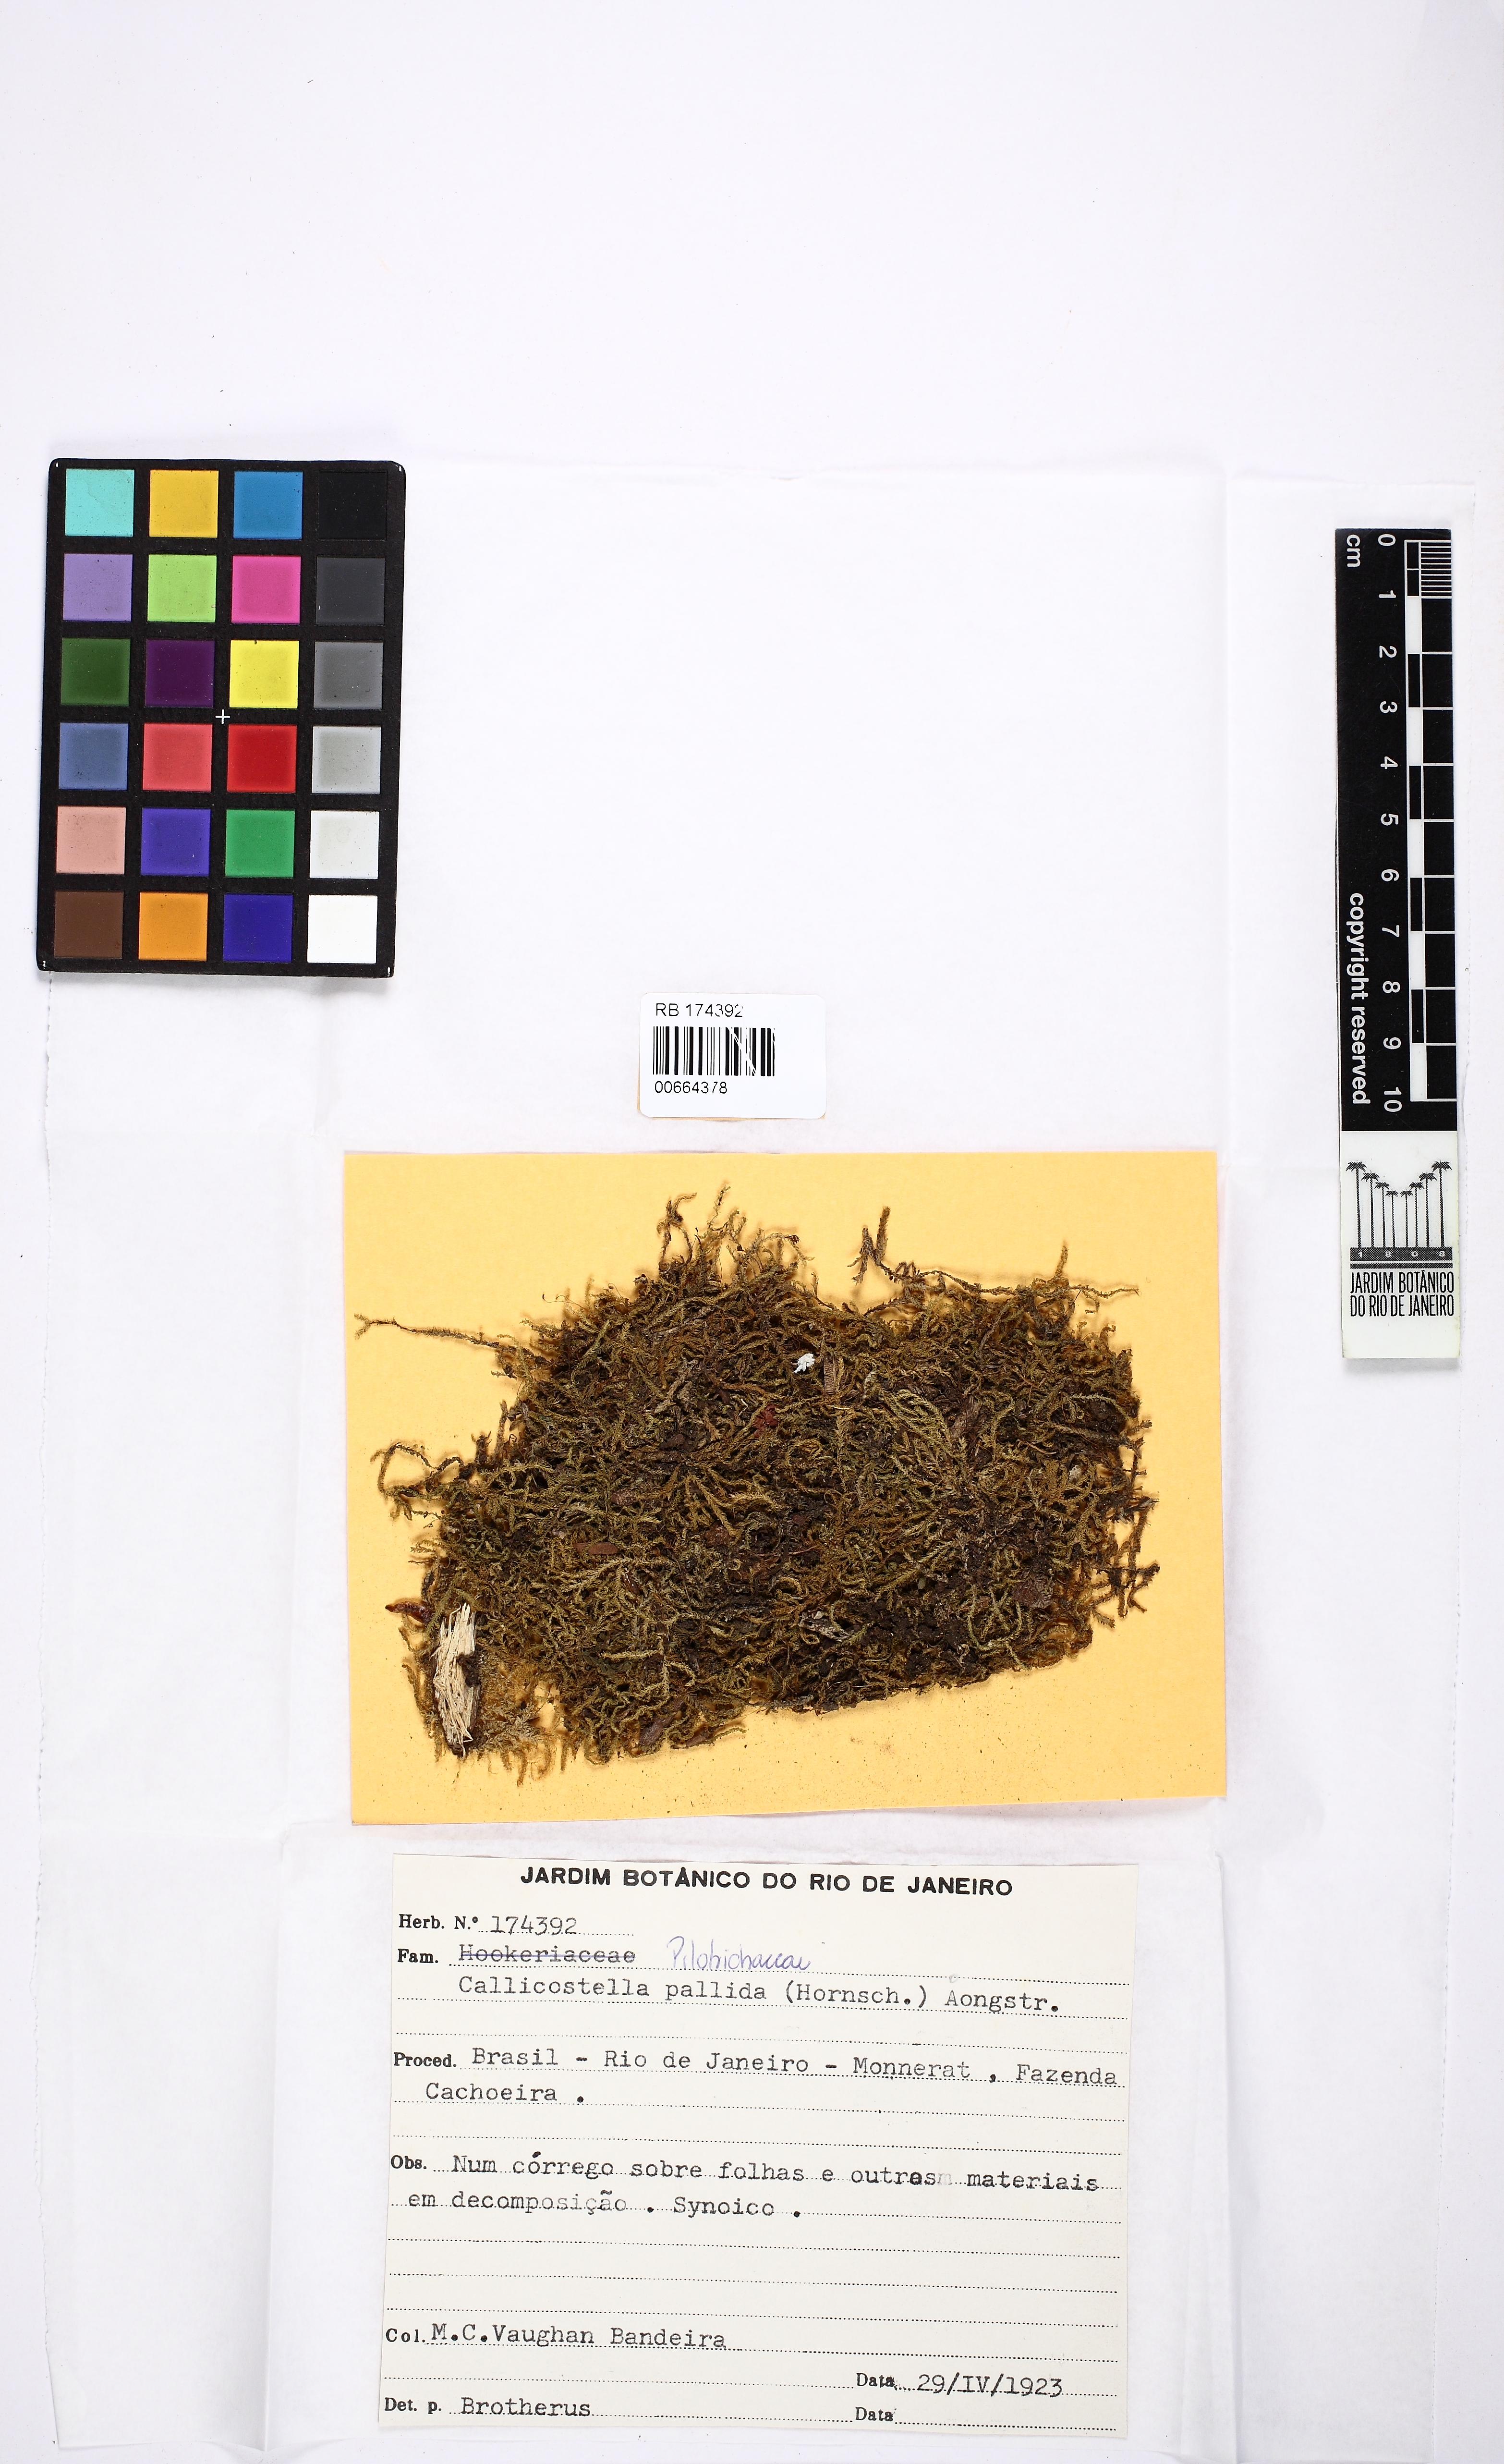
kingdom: Plantae
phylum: Bryophyta
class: Bryopsida
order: Hookeriales
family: Pilotrichaceae
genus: Callicostella
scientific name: Callicostella pallida
